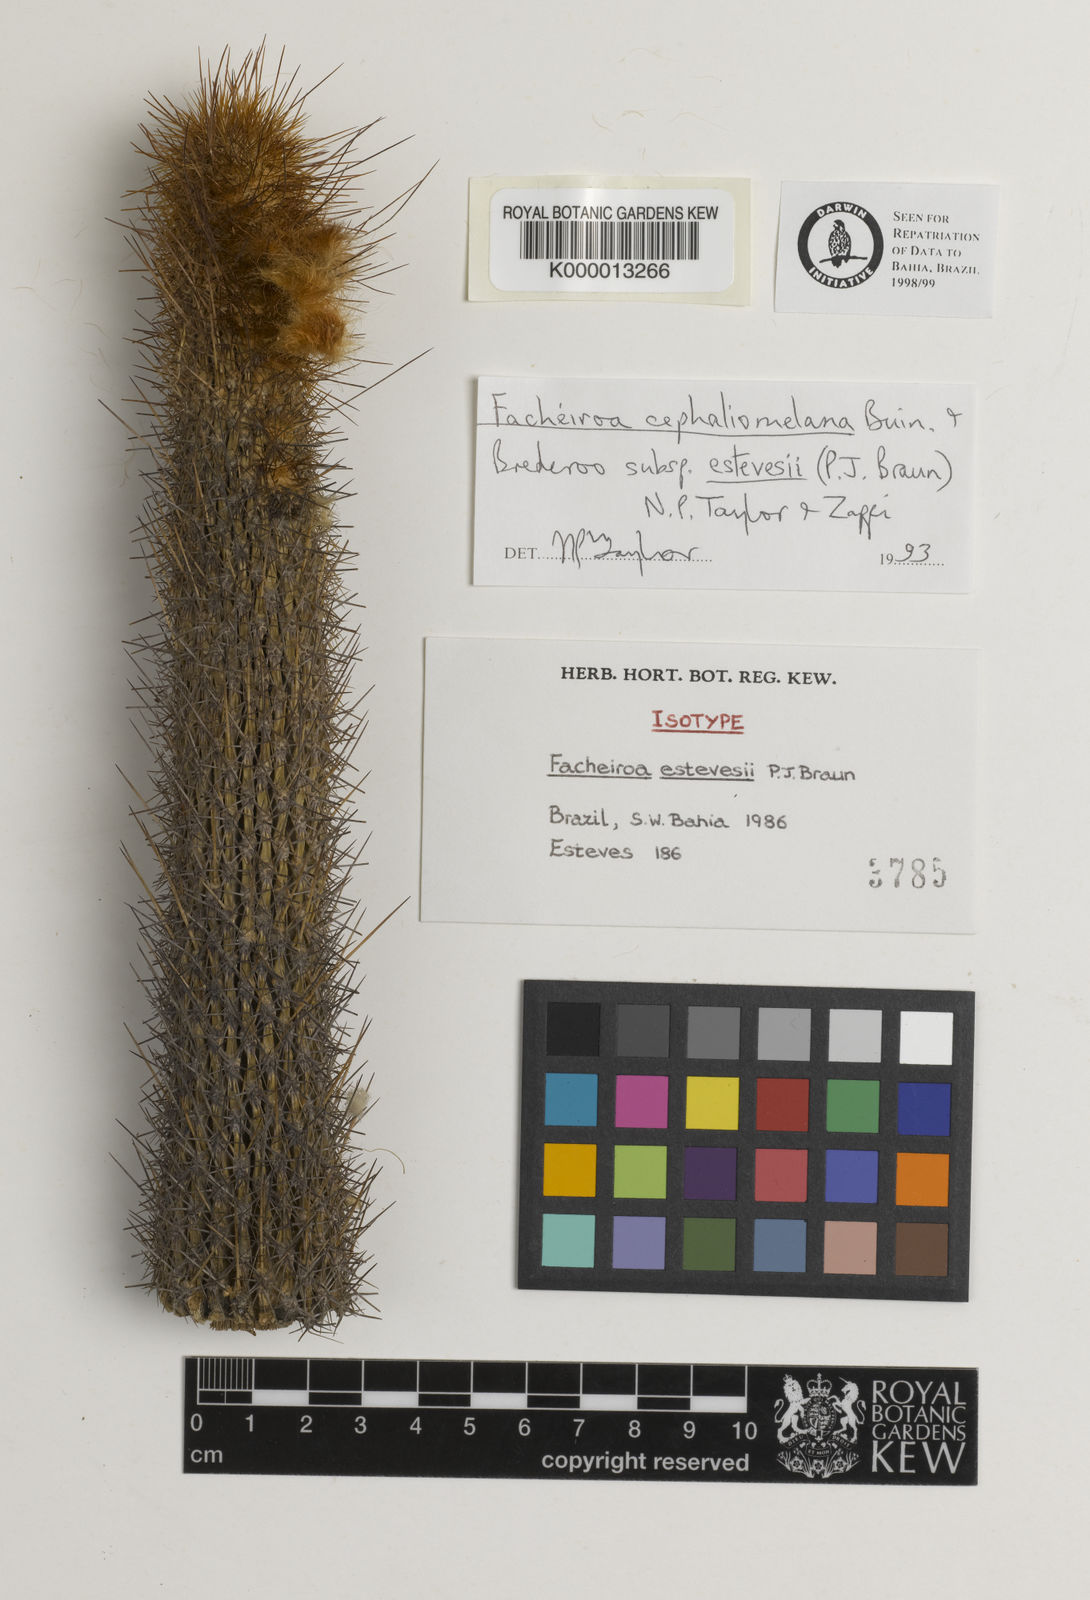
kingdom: Plantae
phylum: Tracheophyta
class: Magnoliopsida
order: Caryophyllales
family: Cactaceae
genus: Facheiroa
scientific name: Facheiroa cephaliomelana
